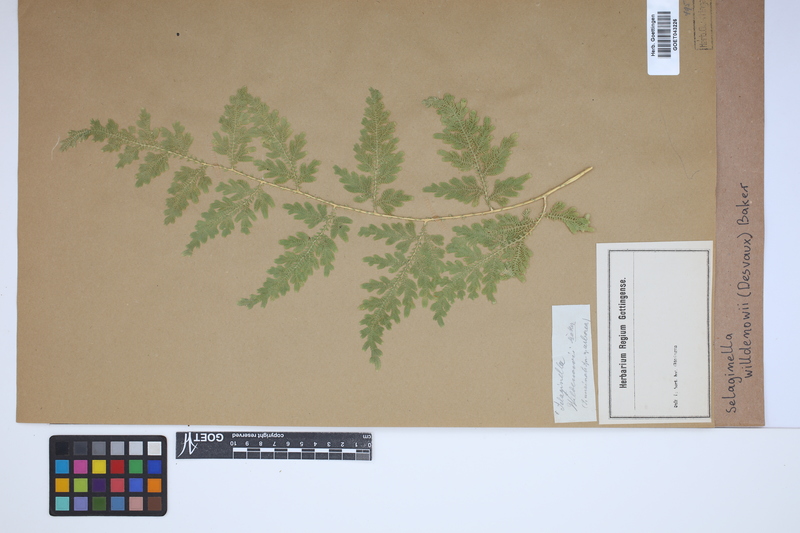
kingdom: Plantae
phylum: Tracheophyta
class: Lycopodiopsida
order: Selaginellales
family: Selaginellaceae
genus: Selaginella
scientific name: Selaginella willdenowii
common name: Willdenow's spikemoss
